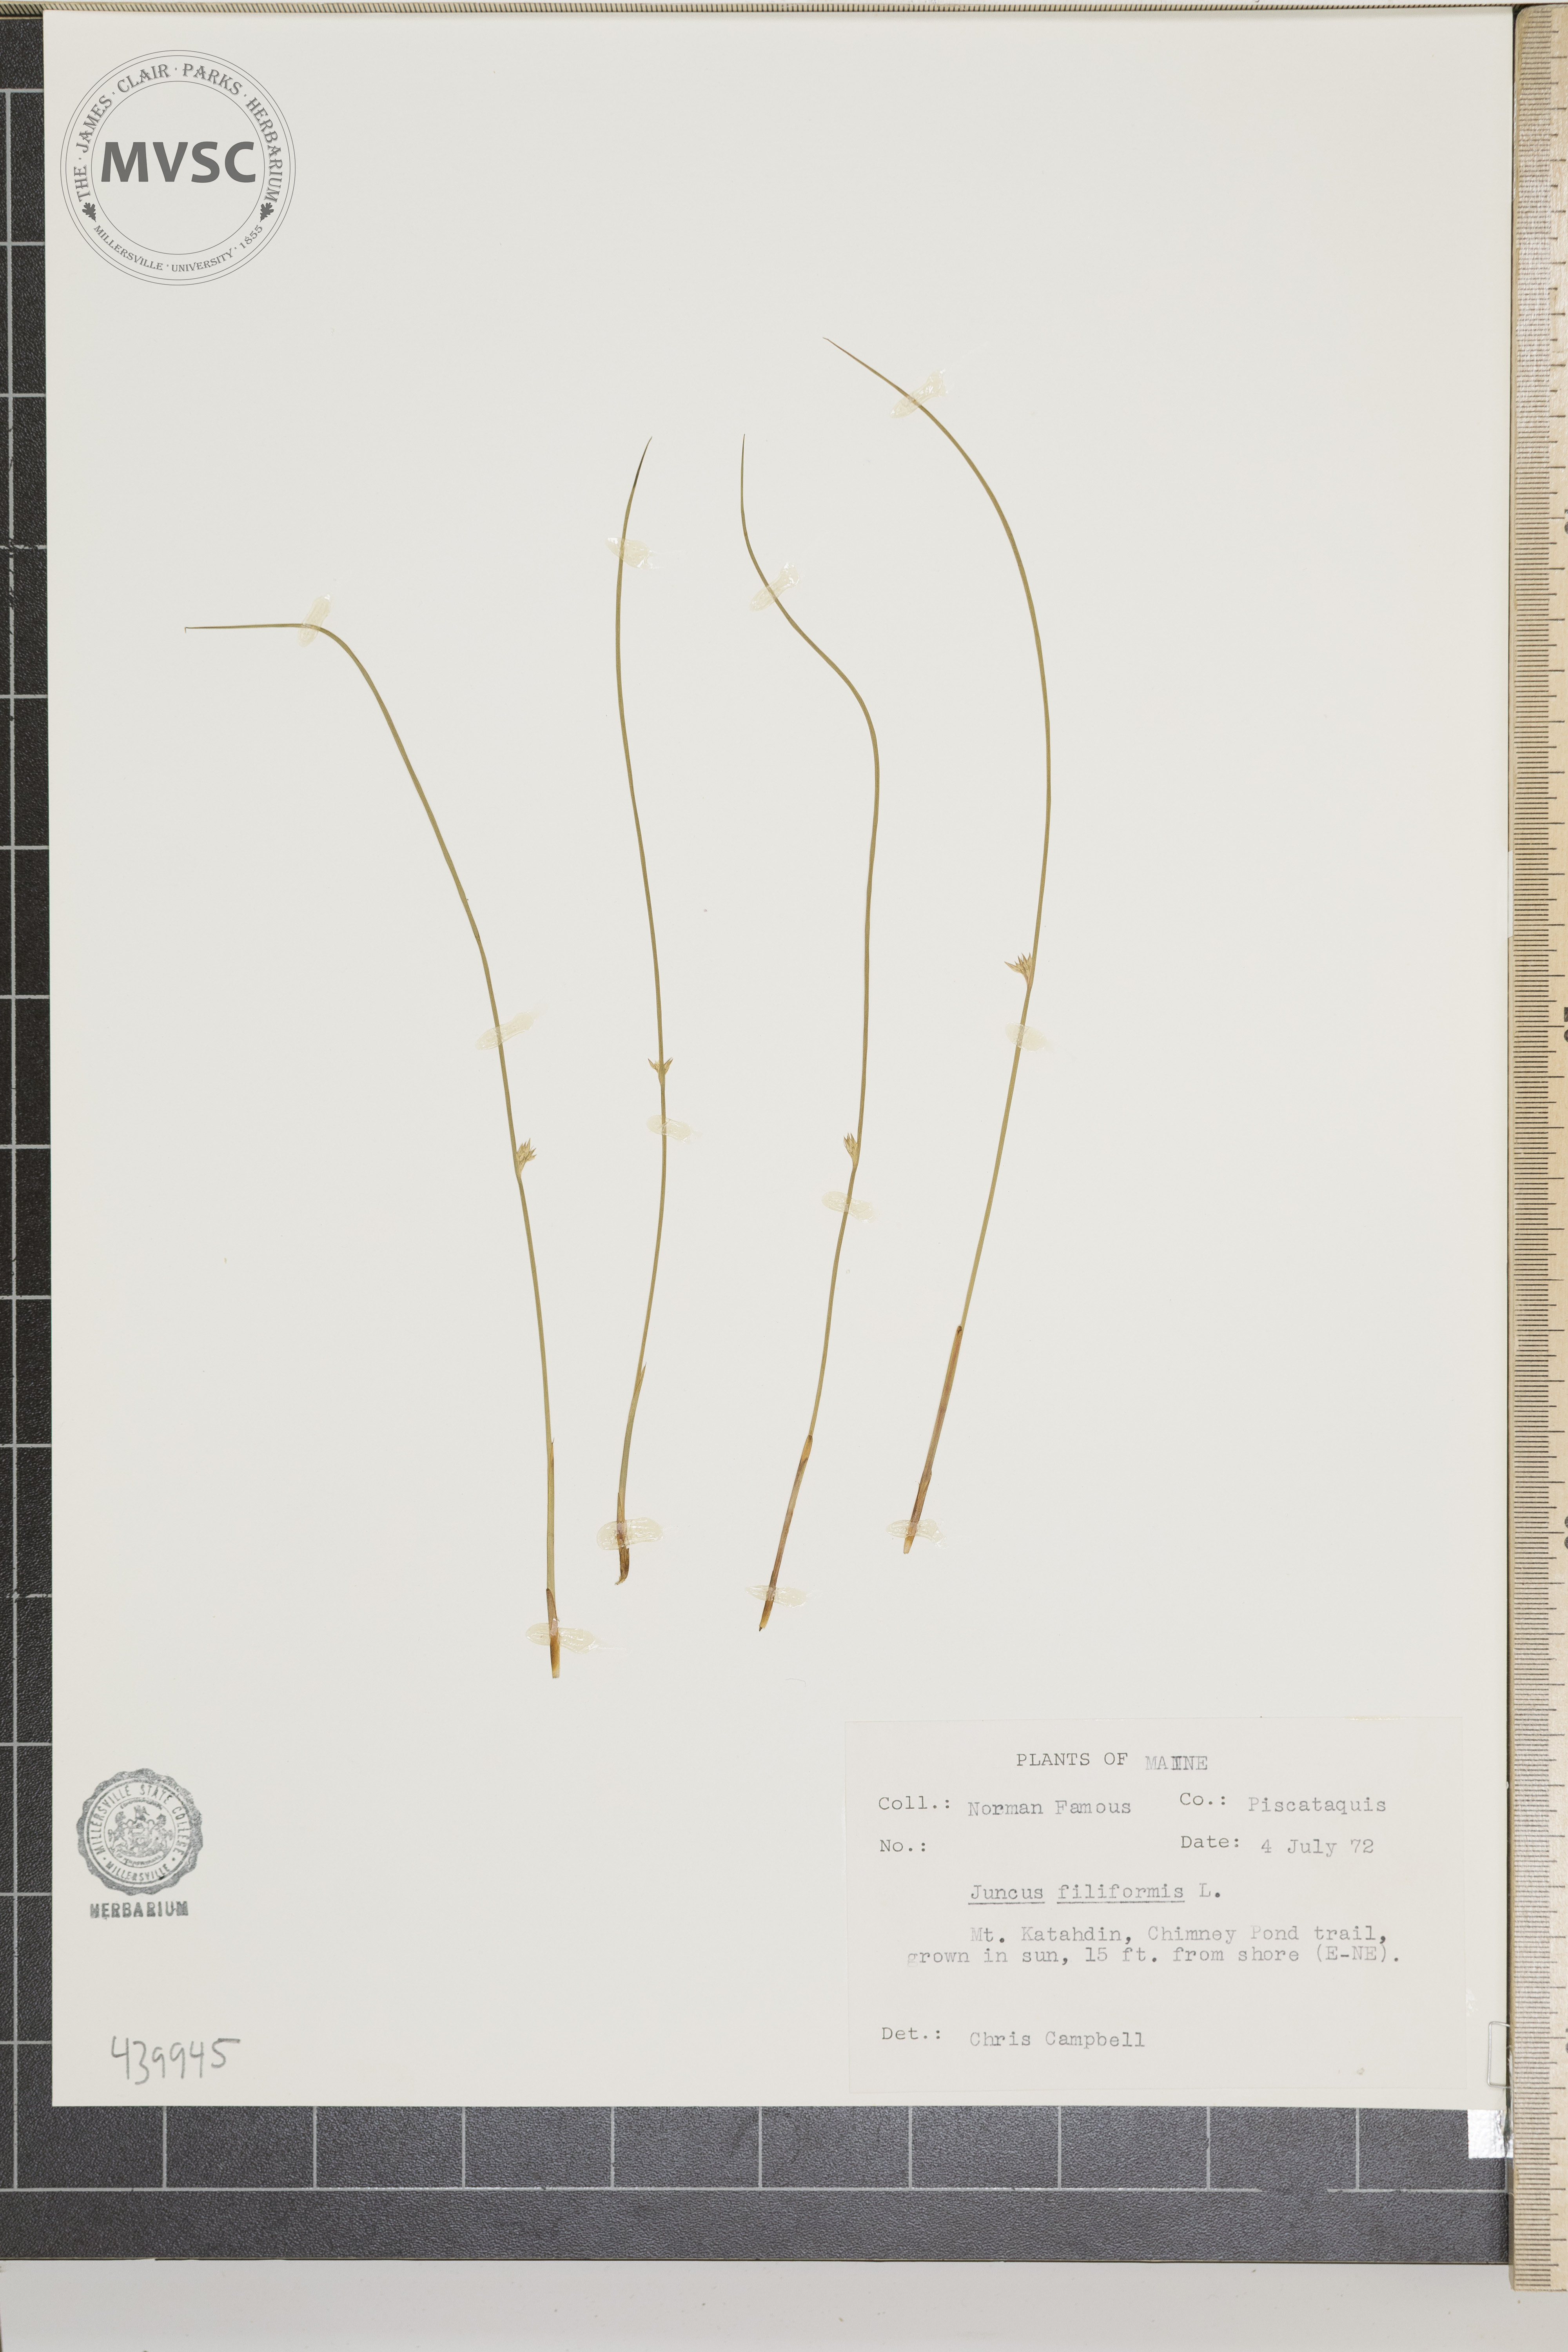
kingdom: Plantae
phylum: Tracheophyta
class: Liliopsida
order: Poales
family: Juncaceae
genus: Juncus
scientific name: Juncus filiformis
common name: Thread rush
